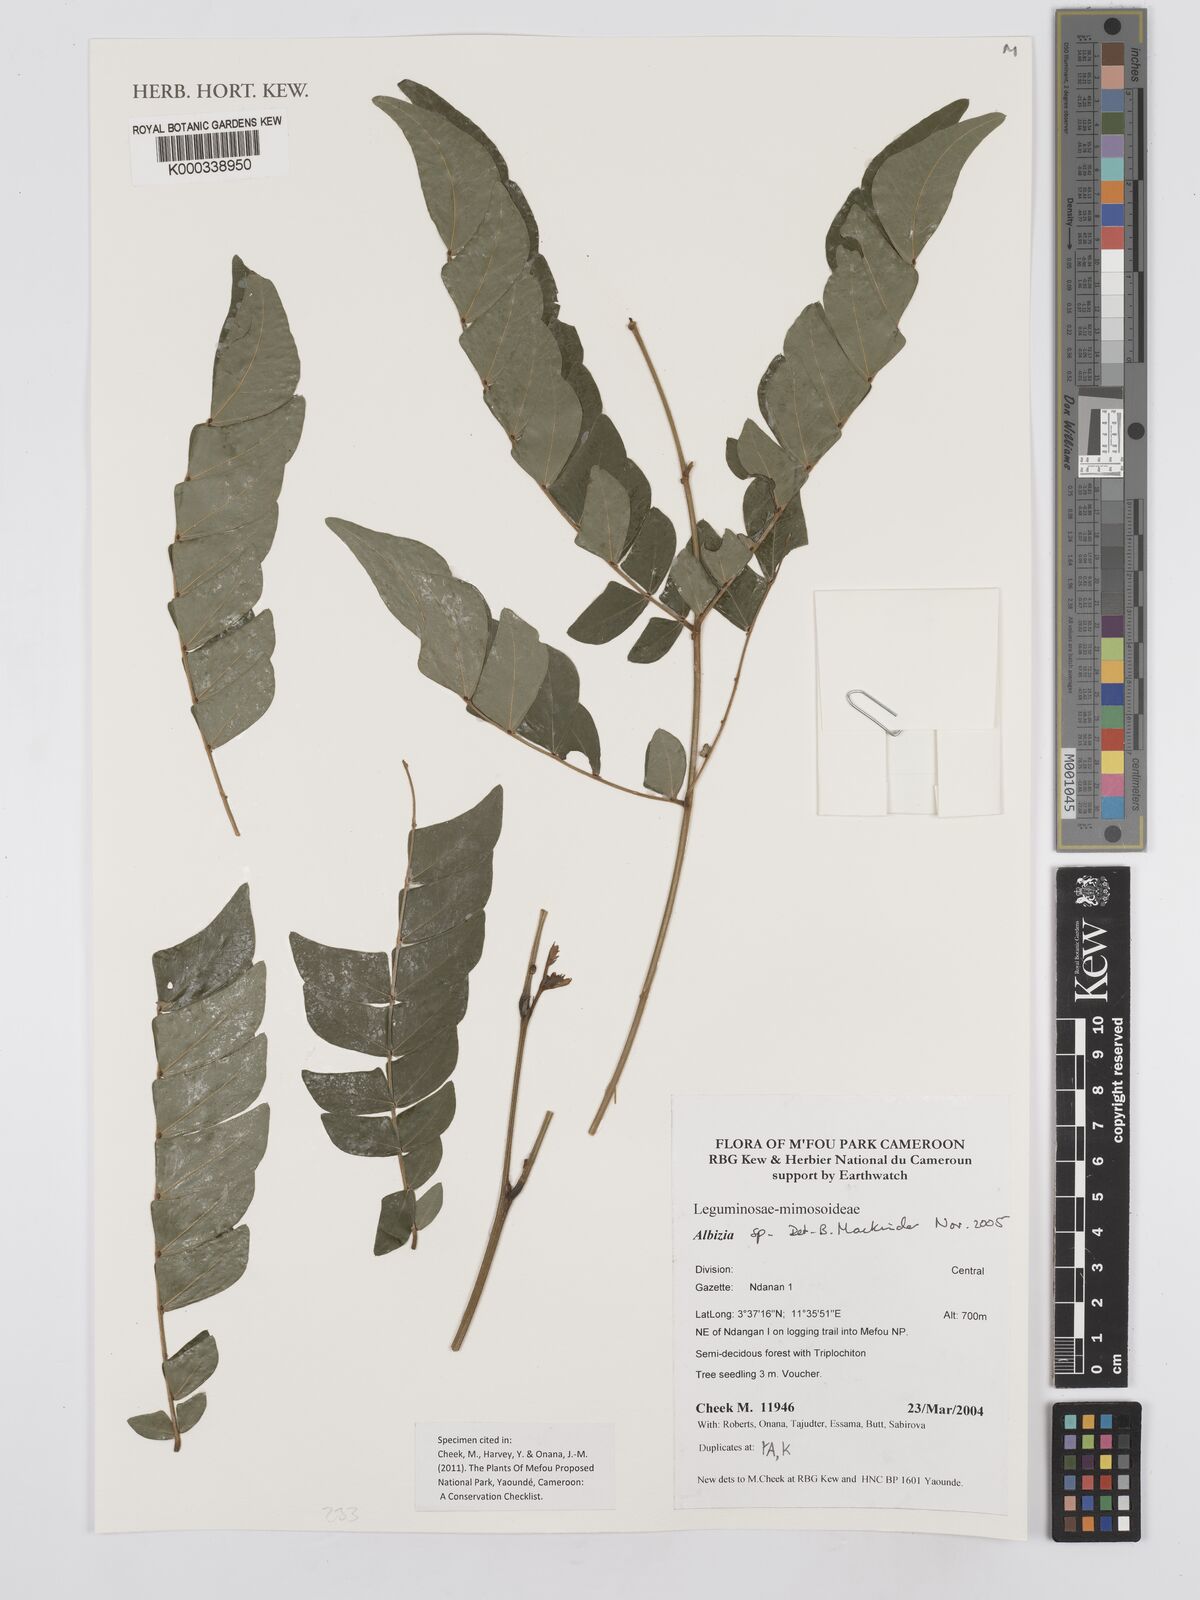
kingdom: Plantae
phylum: Tracheophyta
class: Magnoliopsida
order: Fabales
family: Fabaceae
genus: Albizia
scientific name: Albizia
